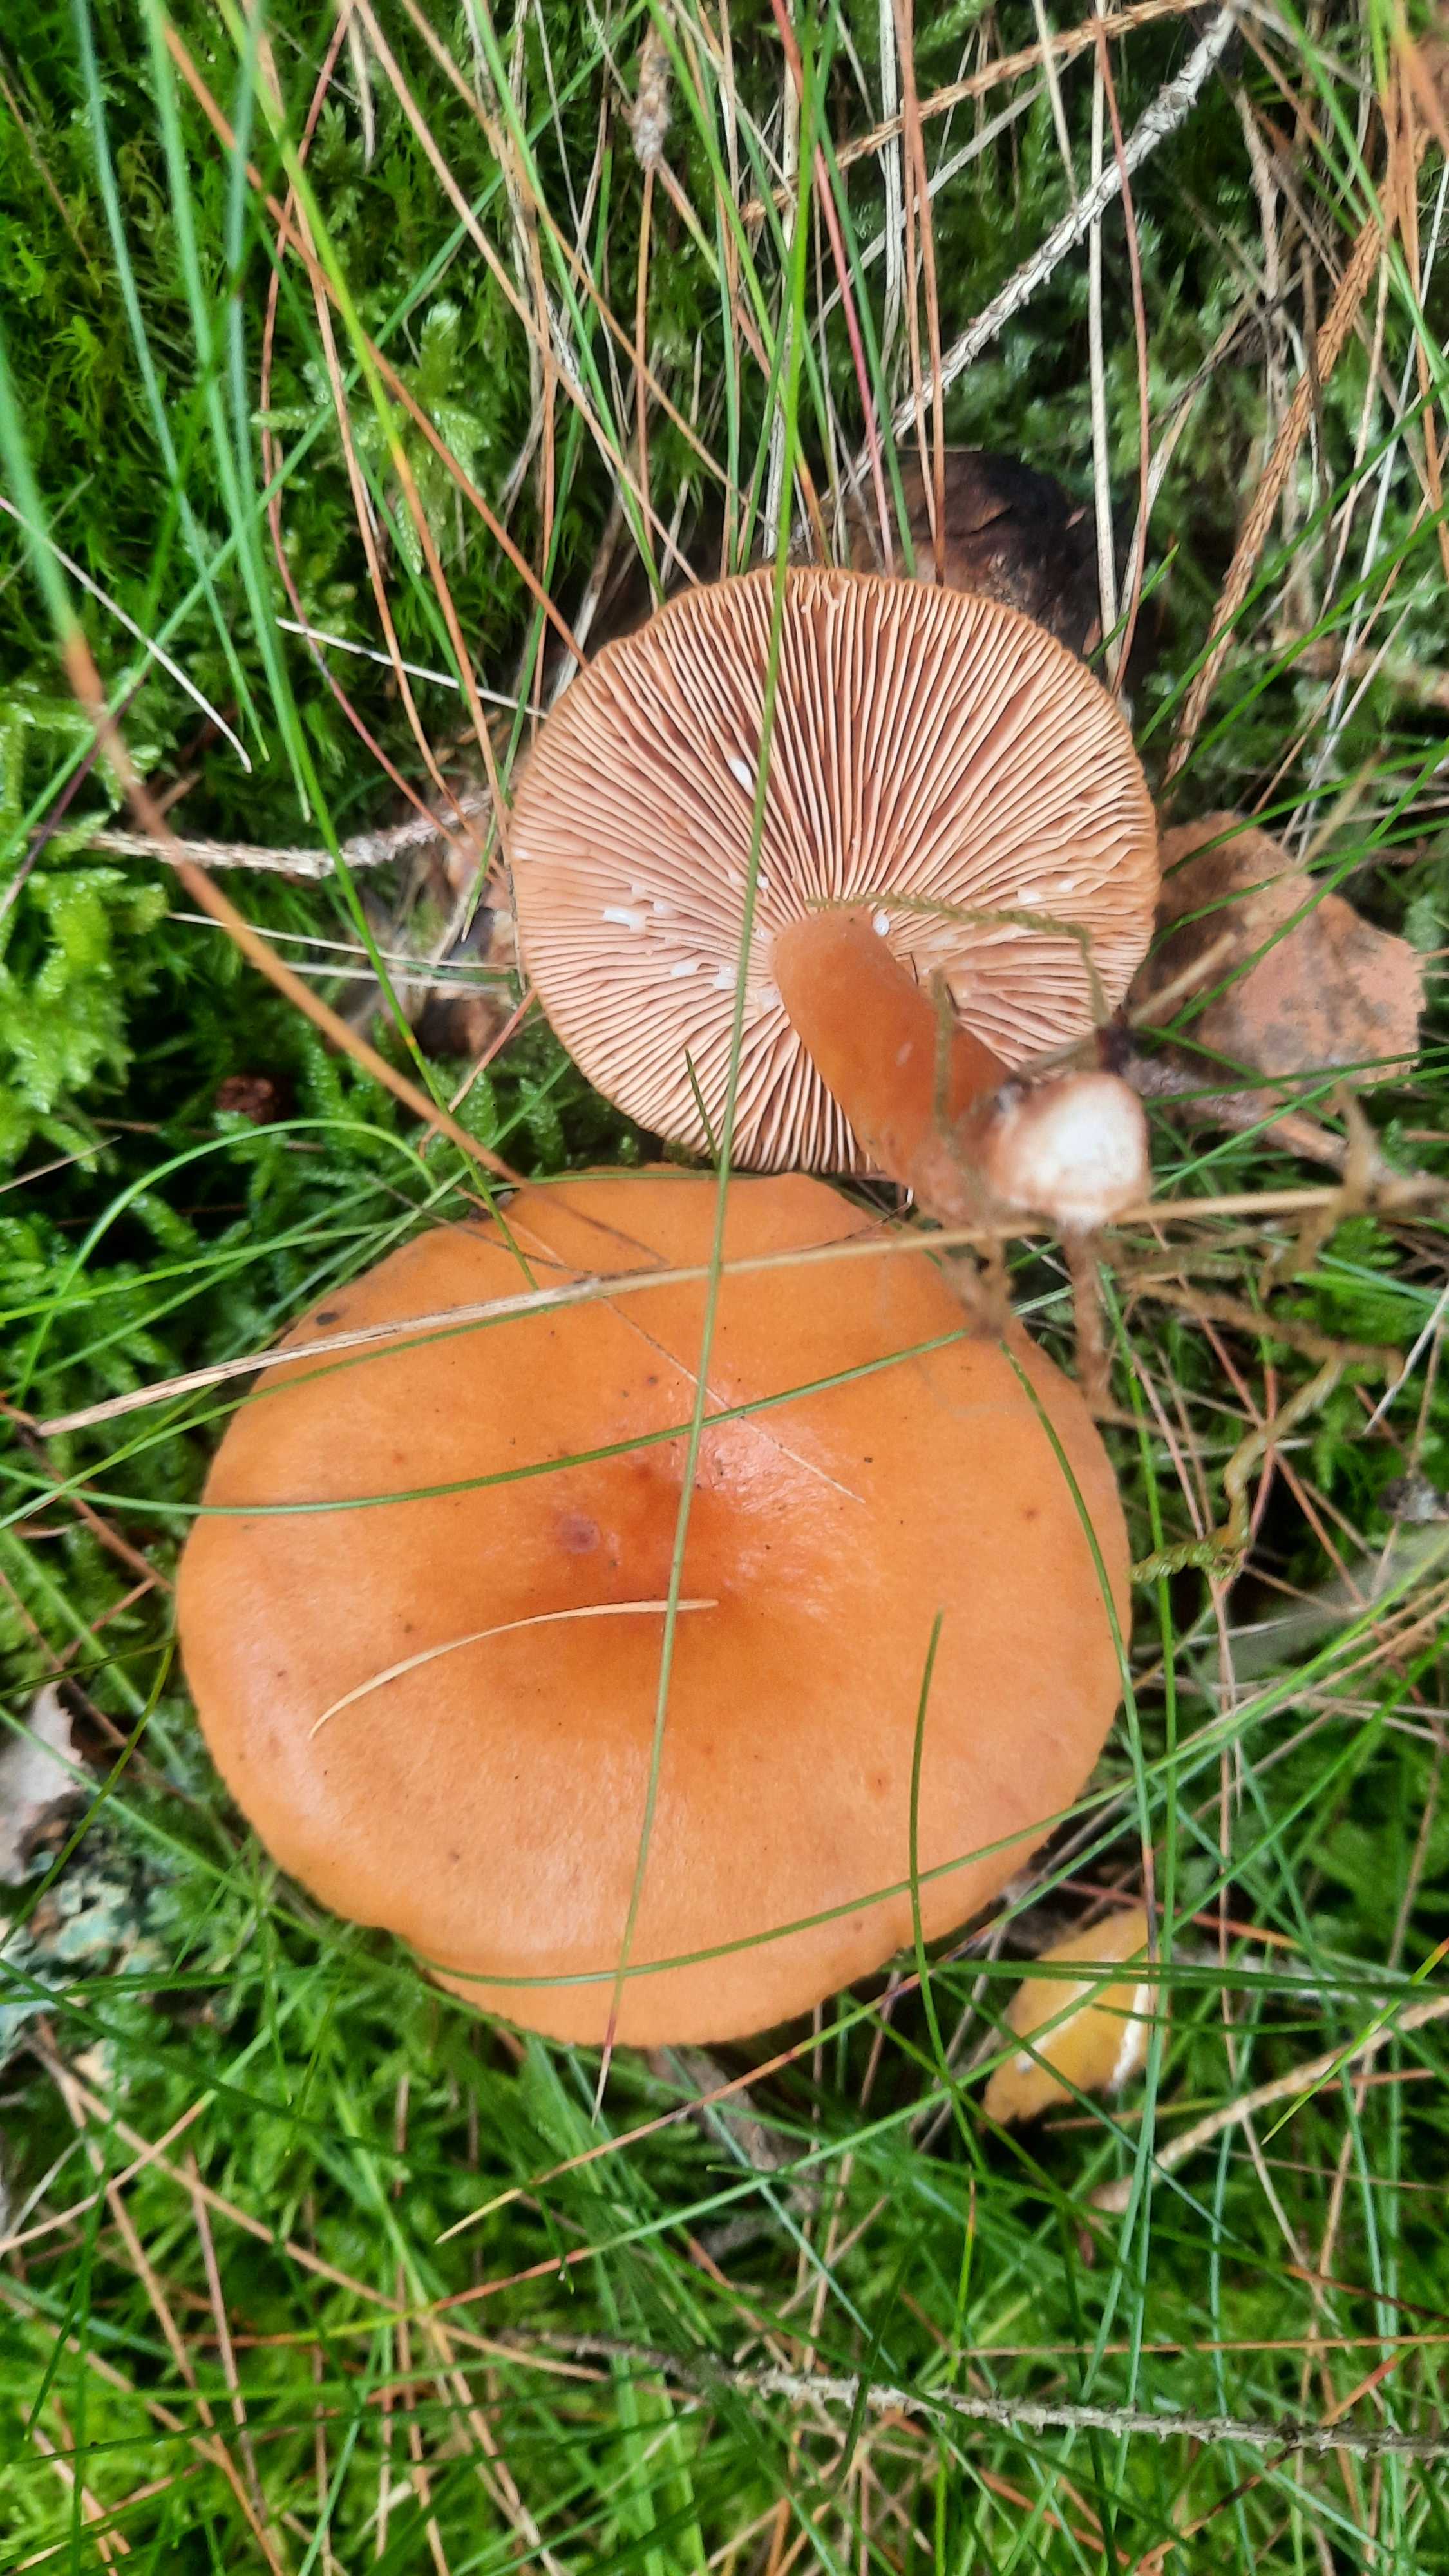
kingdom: Fungi
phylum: Basidiomycota
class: Agaricomycetes
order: Russulales
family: Russulaceae
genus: Lactarius
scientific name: Lactarius aurantiacus
